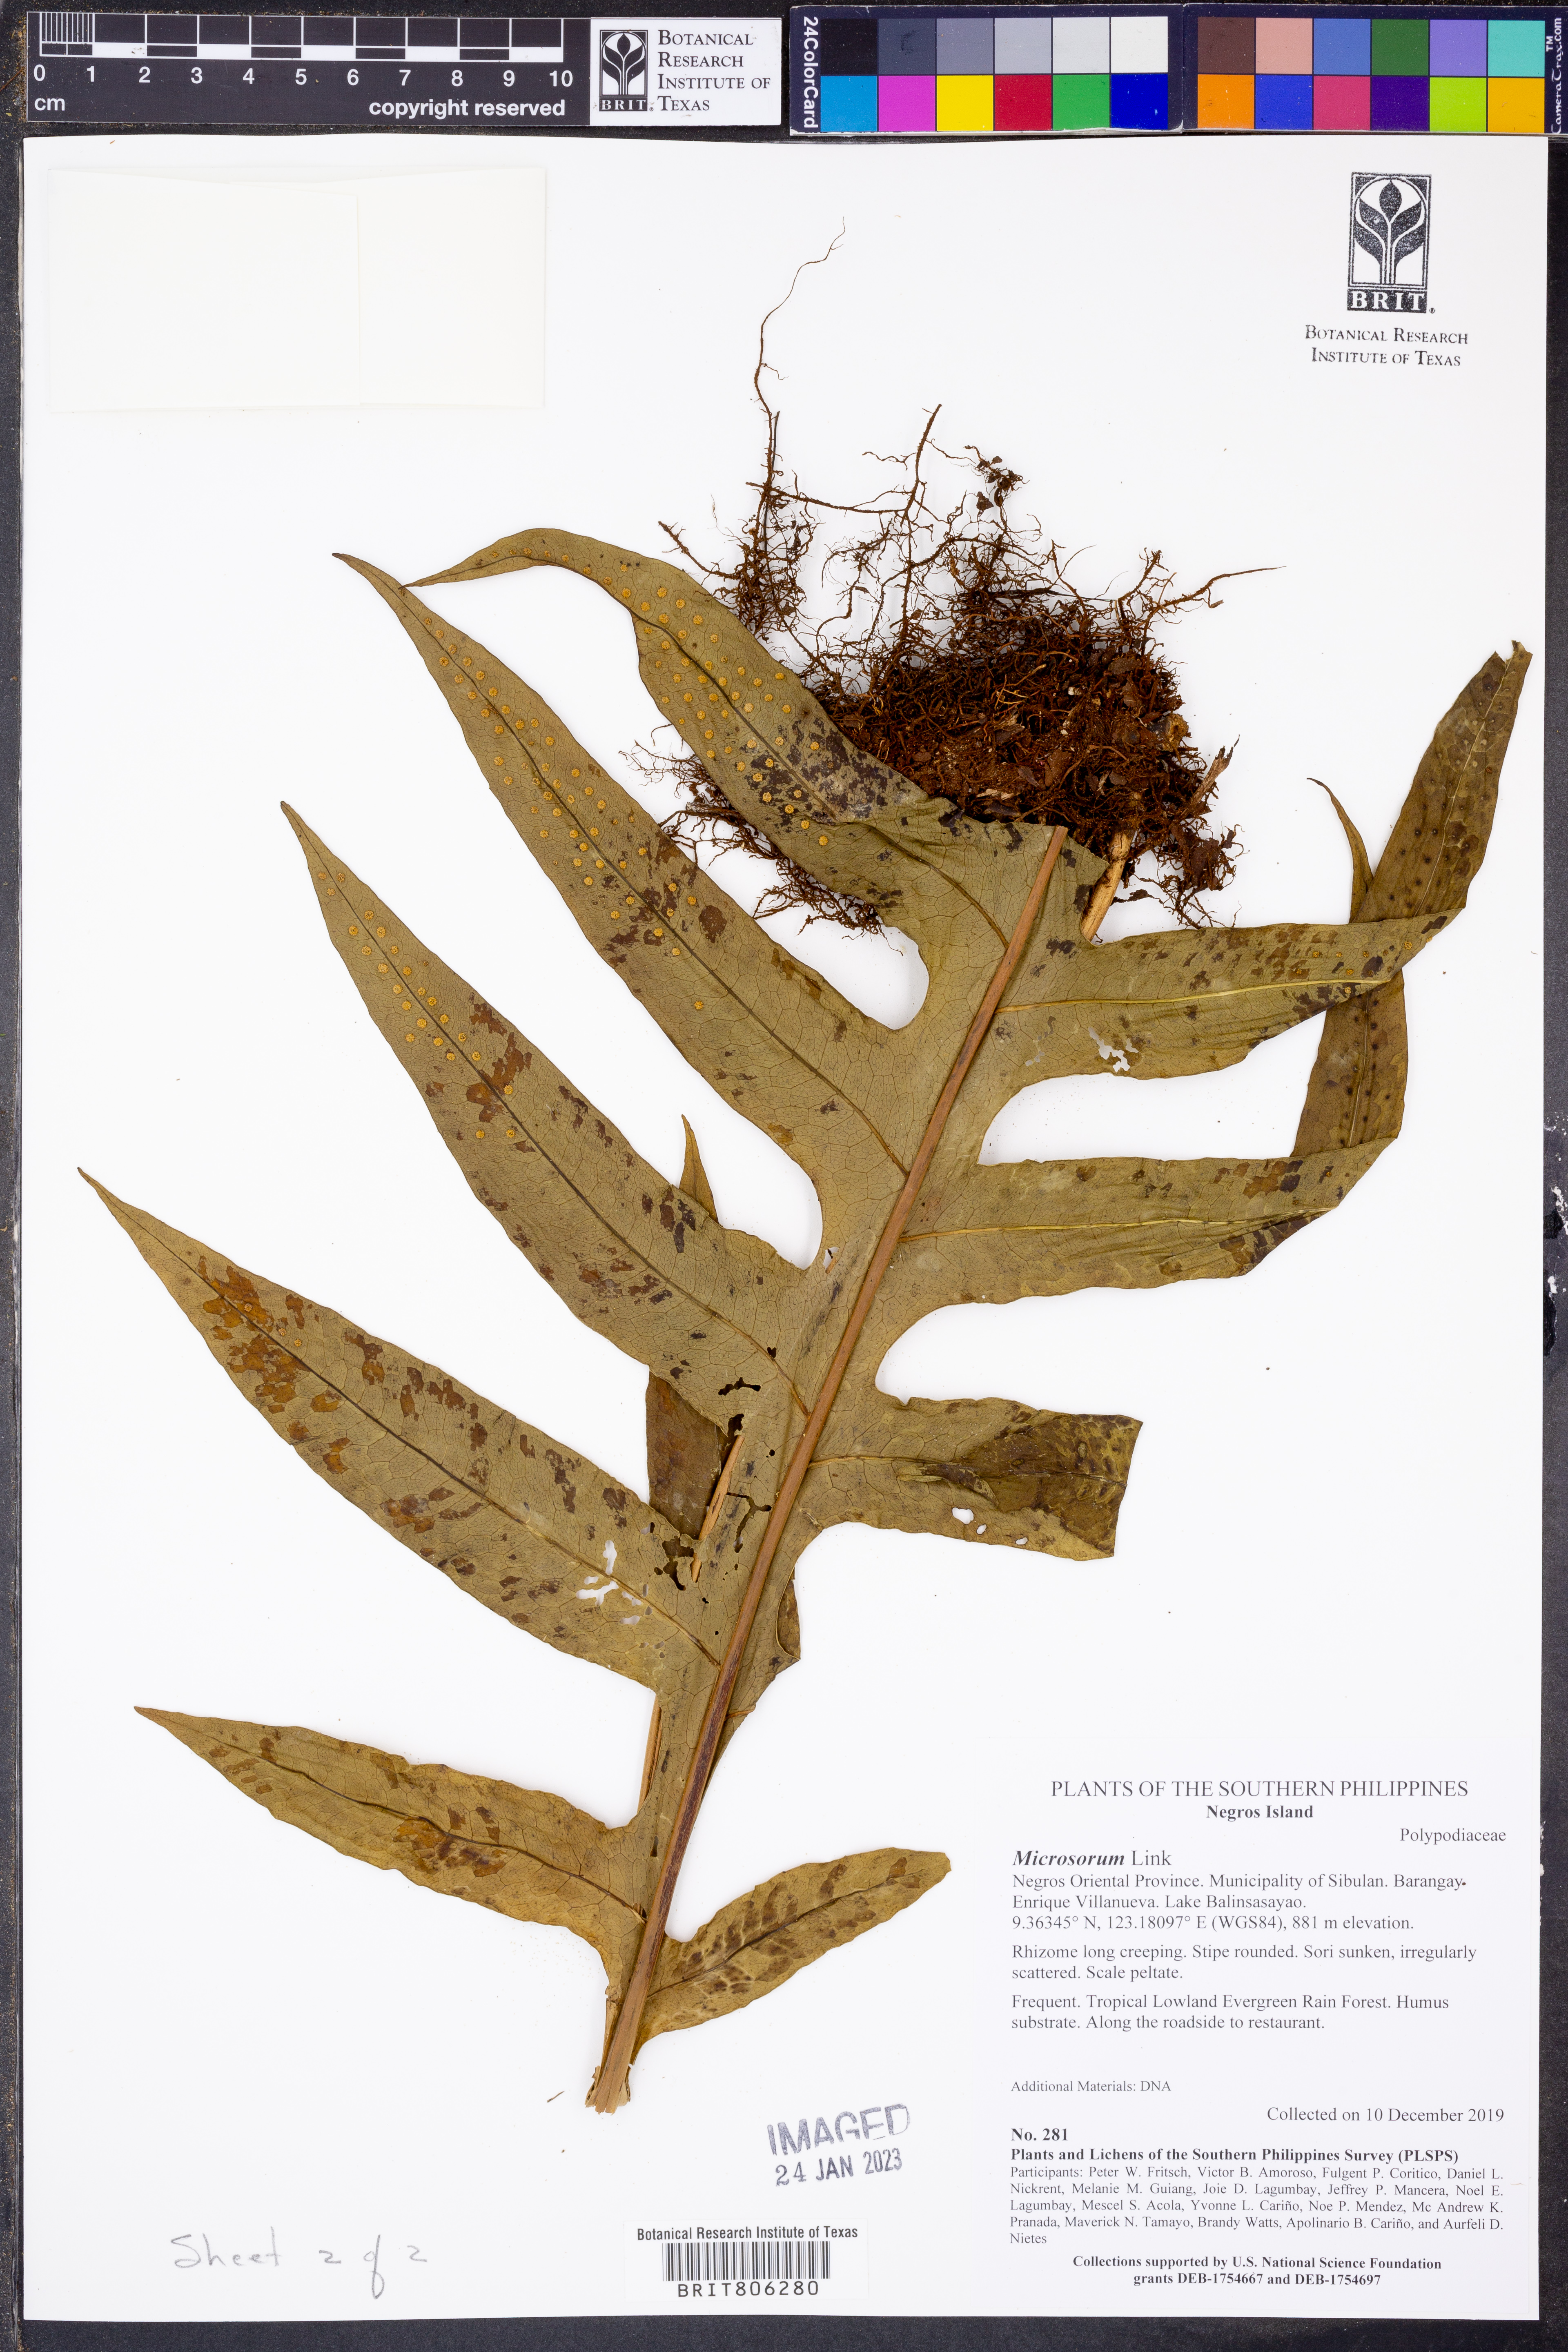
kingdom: Plantae
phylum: Tracheophyta
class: Polypodiopsida
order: Polypodiales
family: Polypodiaceae
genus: Microsorum
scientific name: Microsorum
